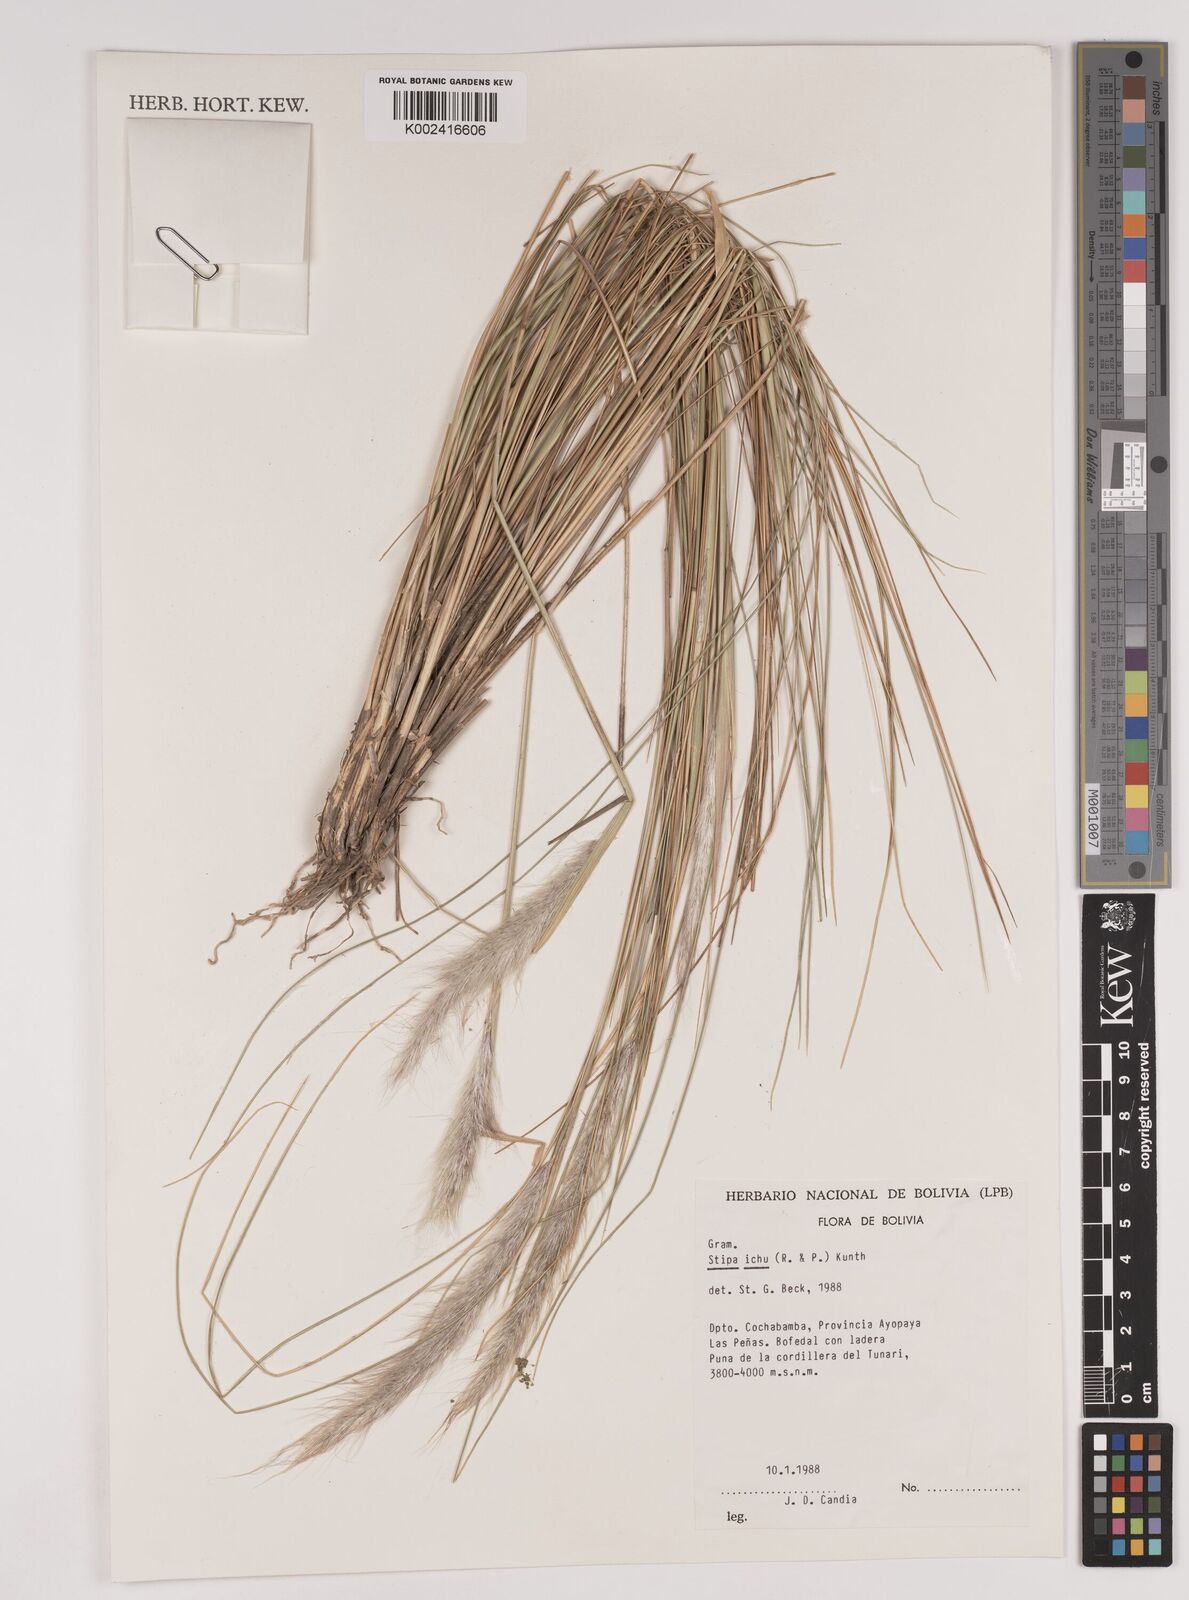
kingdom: Plantae
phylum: Tracheophyta
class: Liliopsida
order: Poales
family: Poaceae
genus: Jarava
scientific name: Jarava leptostachya
